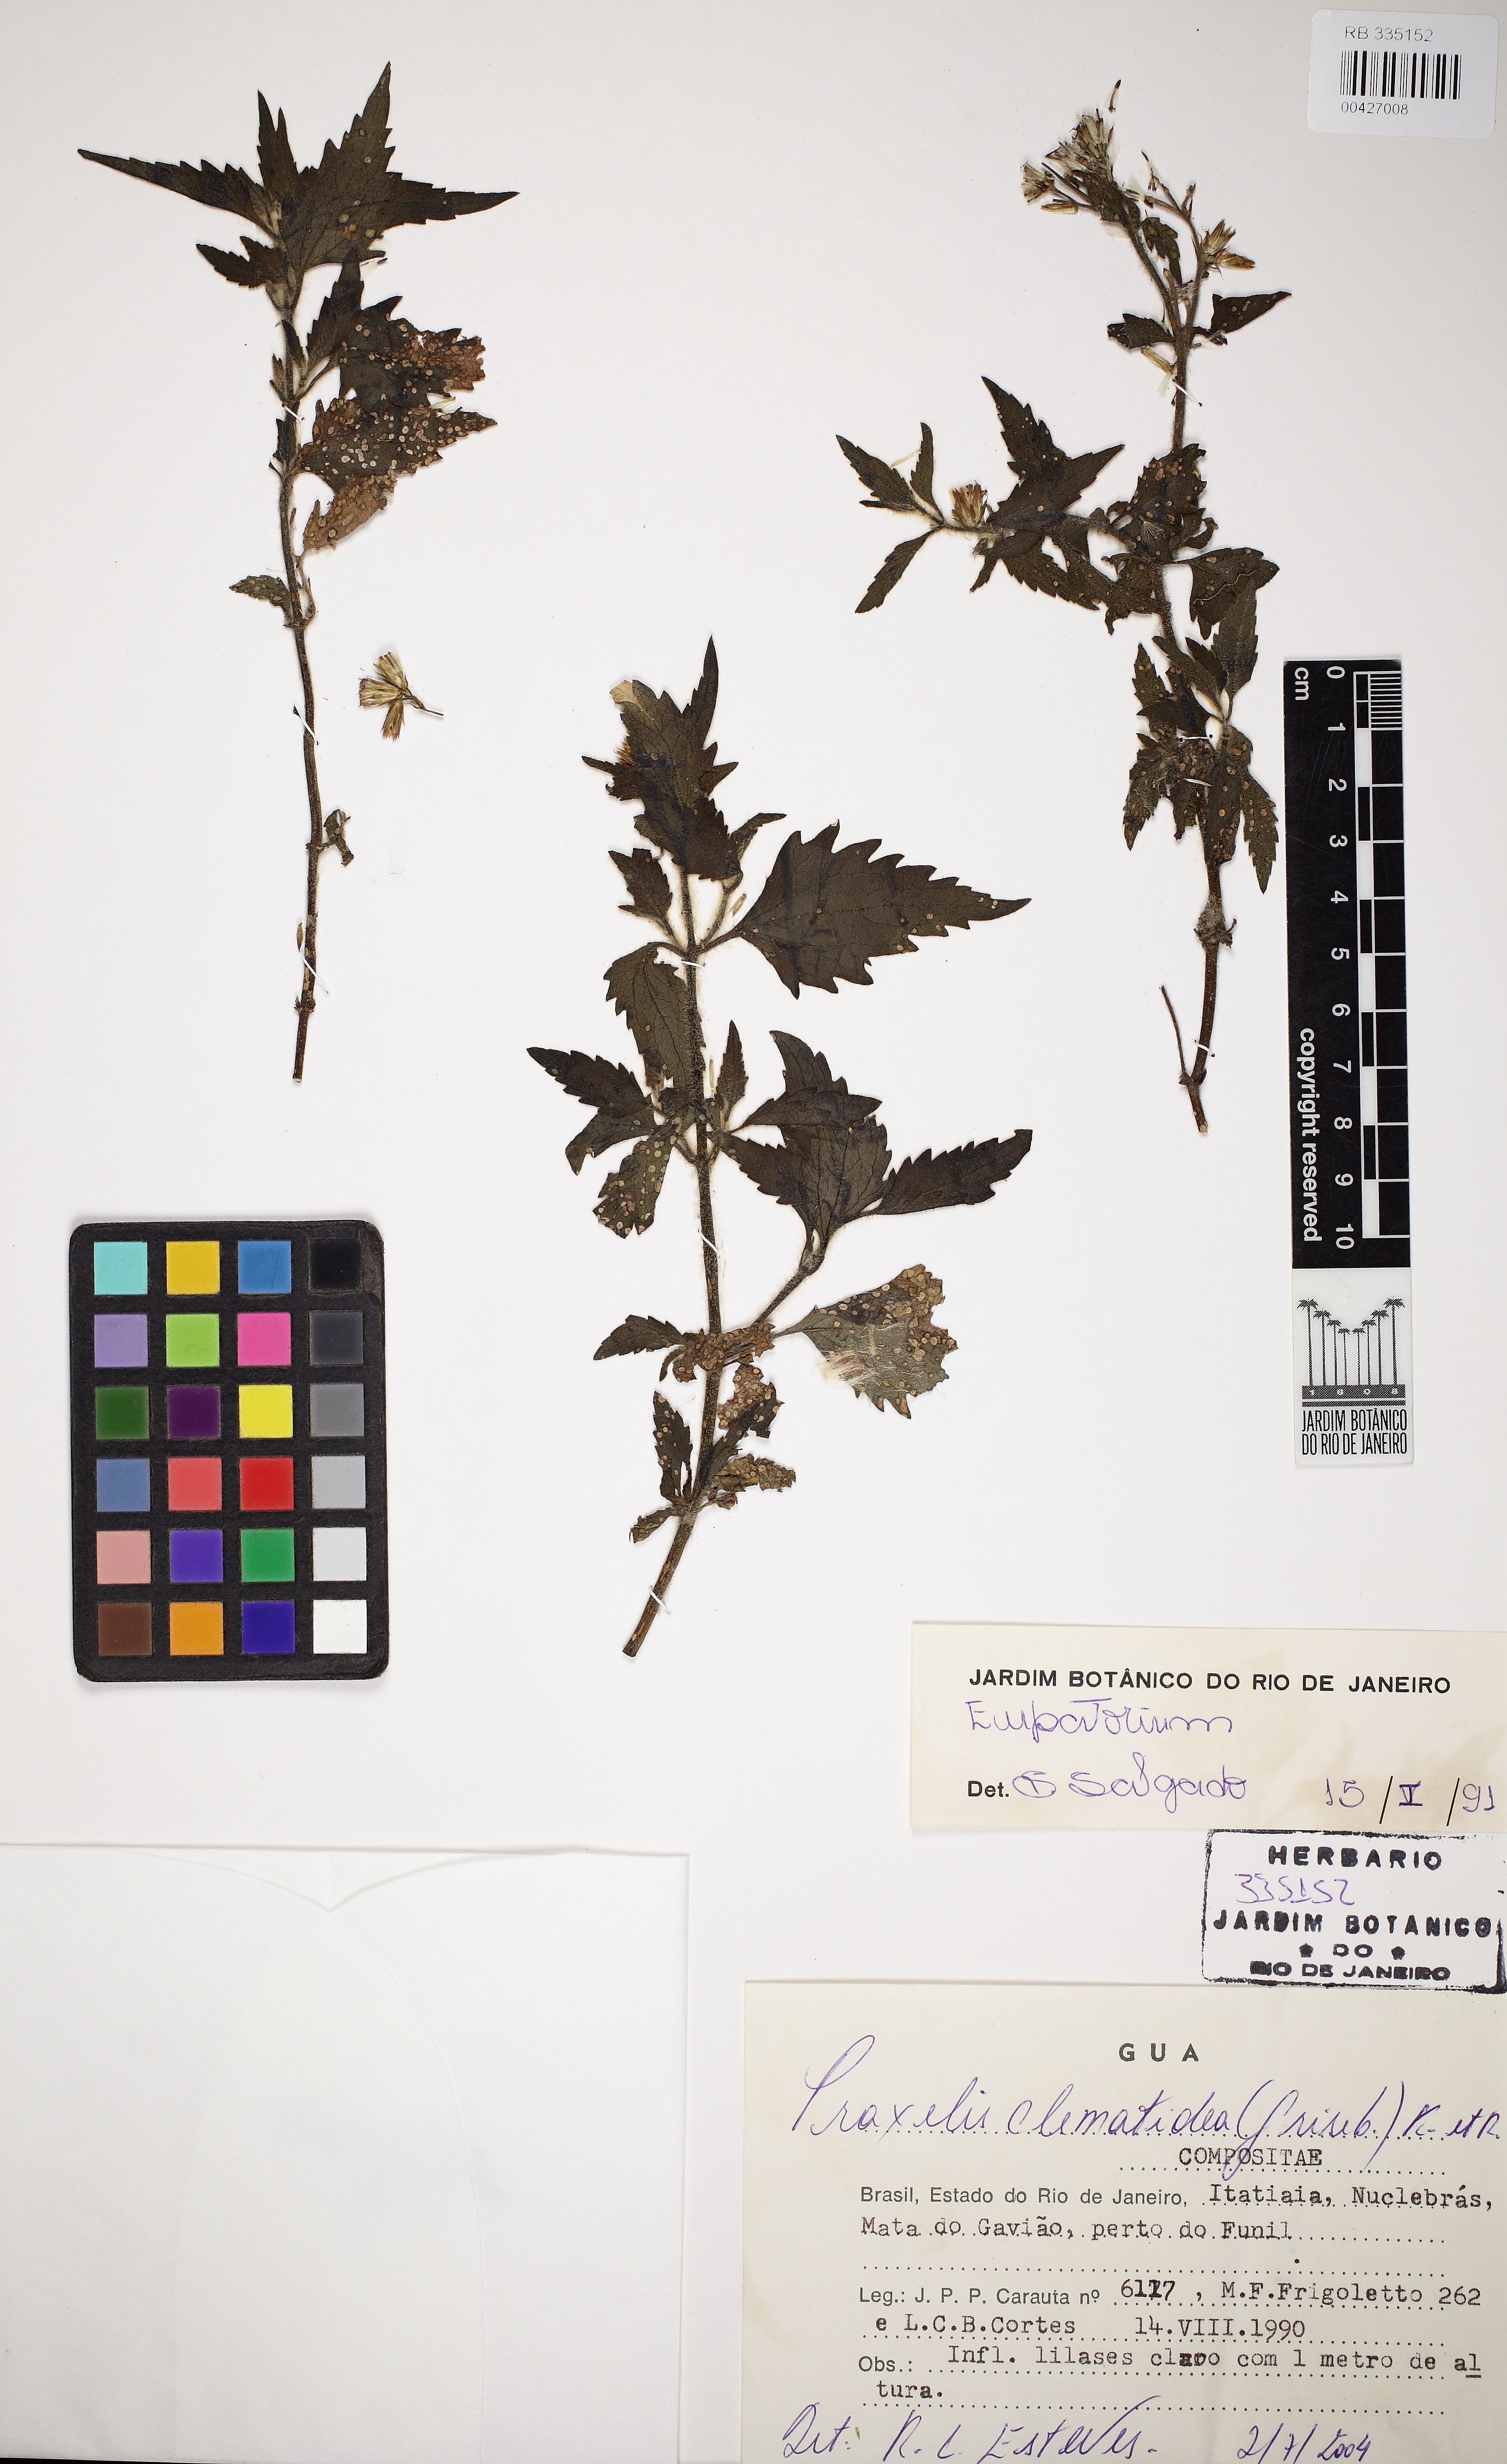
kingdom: Plantae
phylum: Tracheophyta
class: Magnoliopsida
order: Asterales
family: Asteraceae
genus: Praxelis
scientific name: Praxelis clematidea
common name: Praxelis
